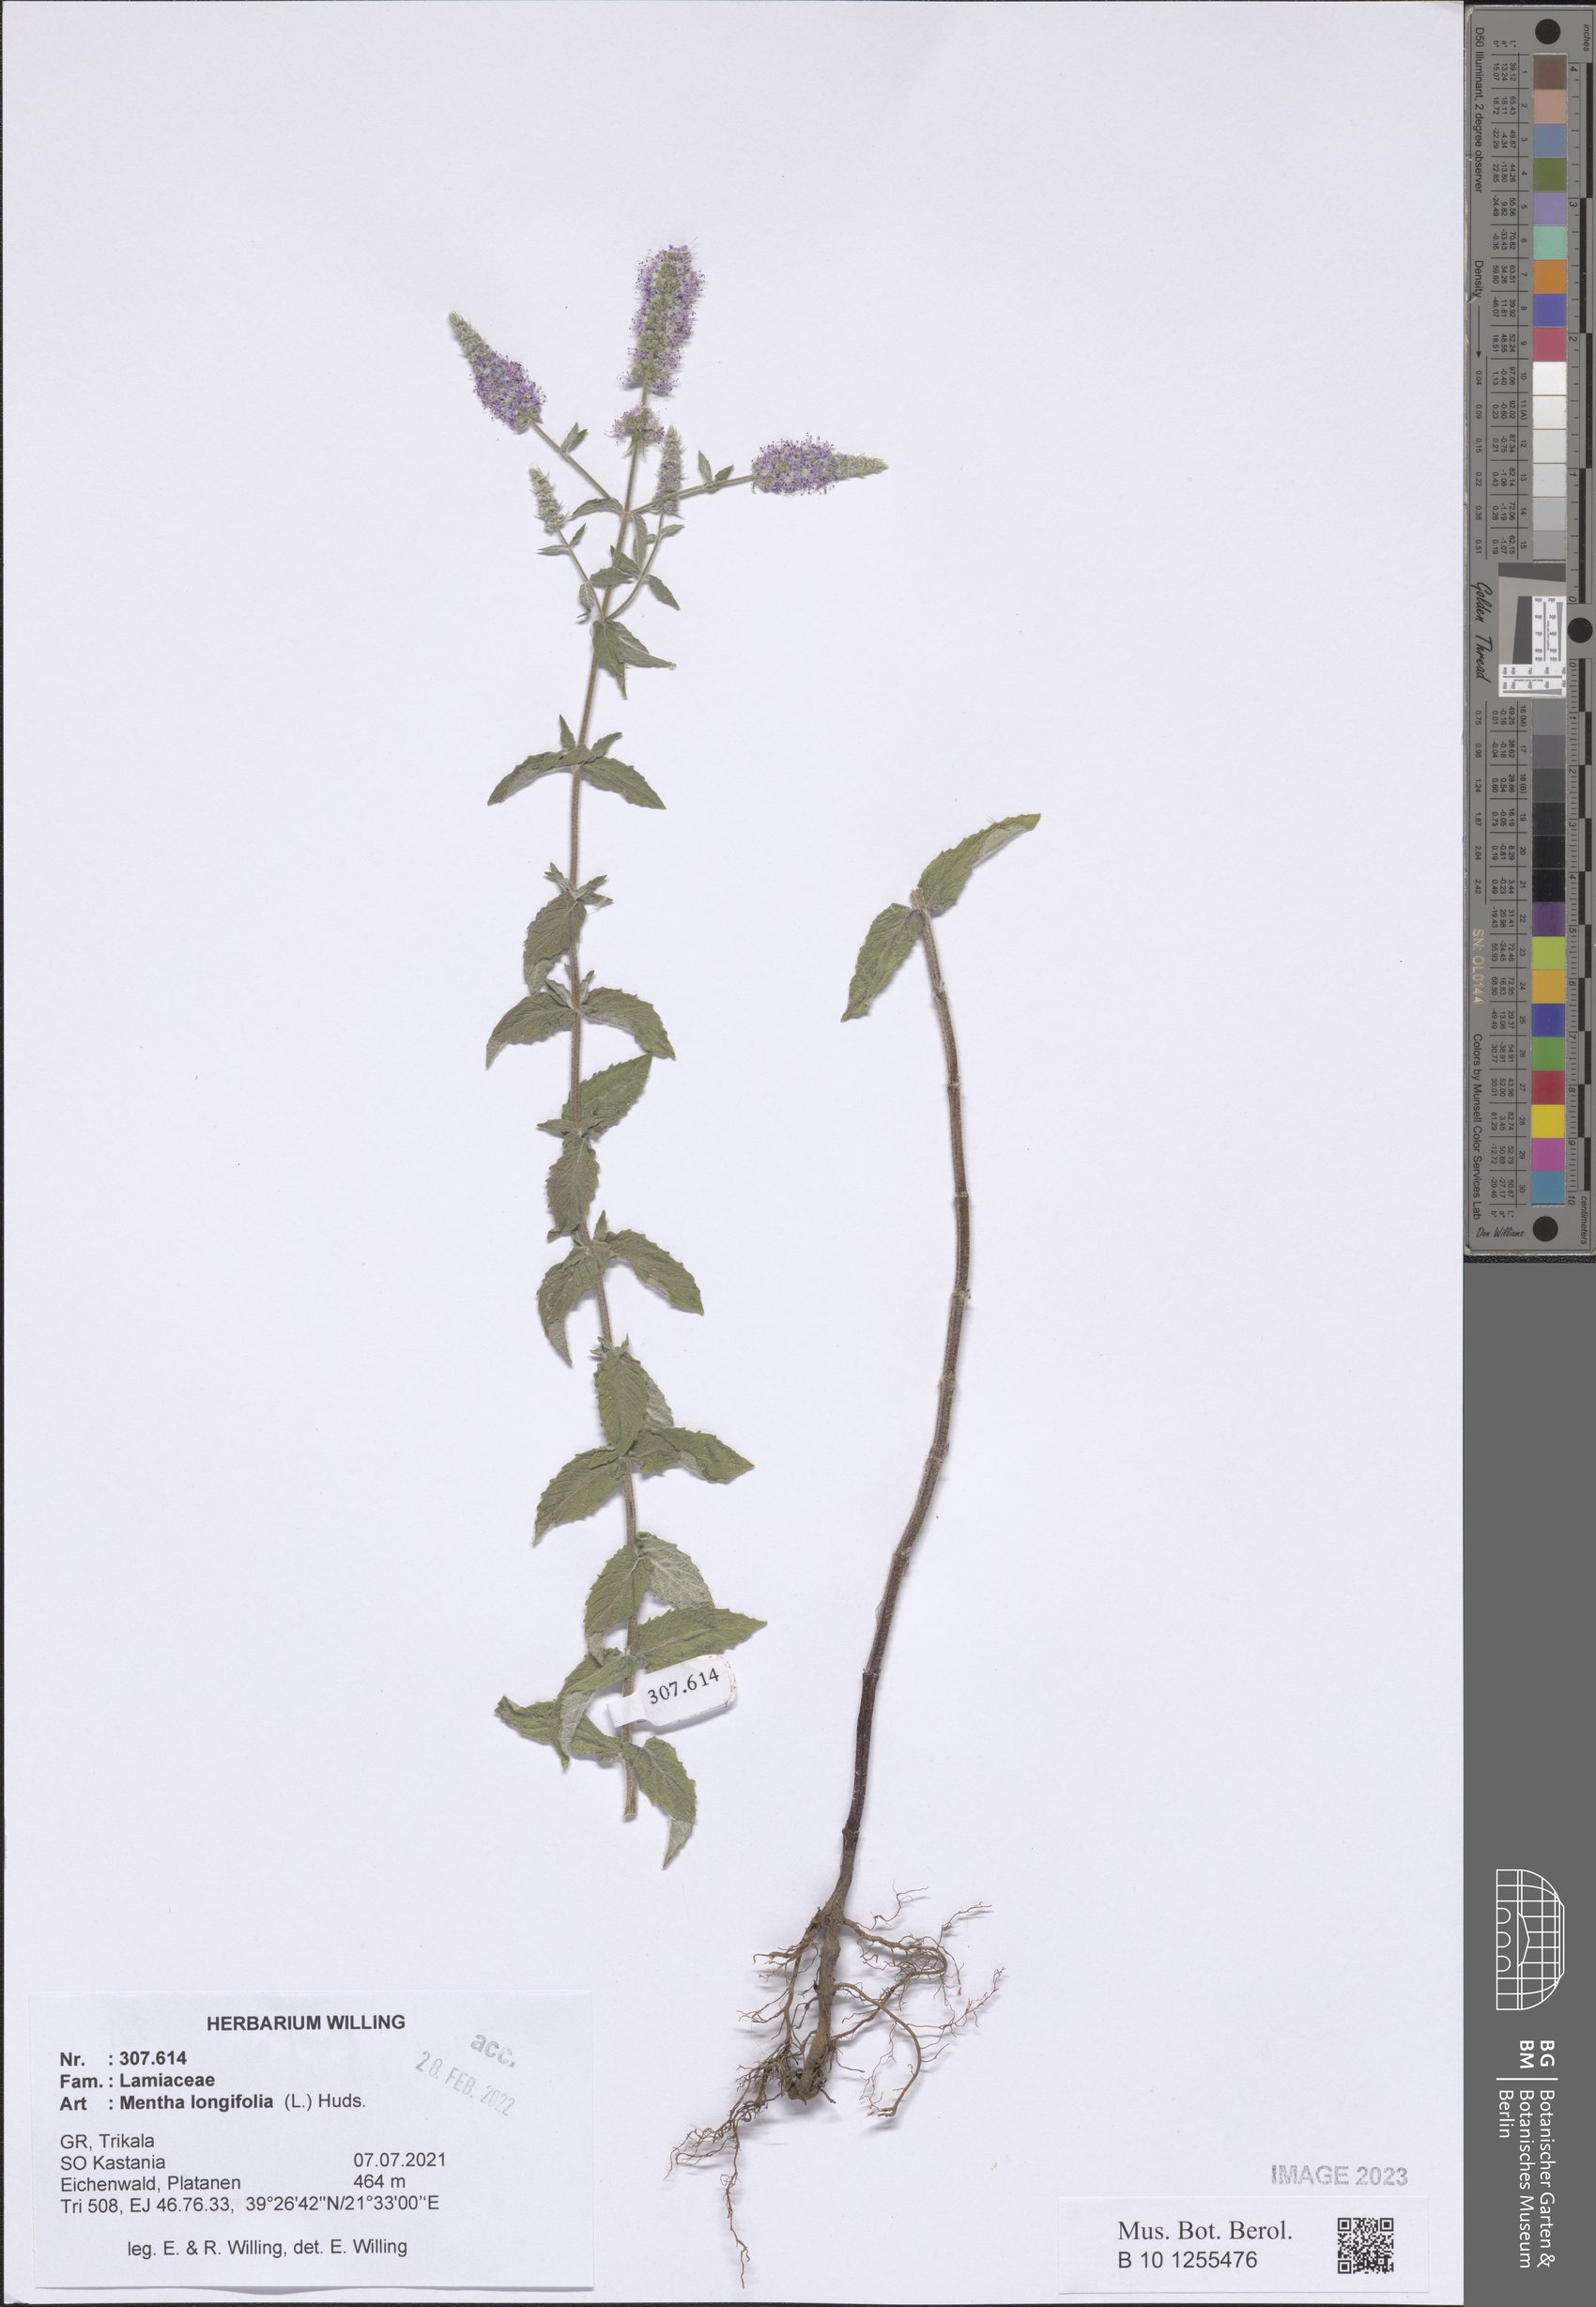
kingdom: Plantae
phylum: Tracheophyta
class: Magnoliopsida
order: Lamiales
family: Lamiaceae
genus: Mentha
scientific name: Mentha longifolia
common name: Horse mint
